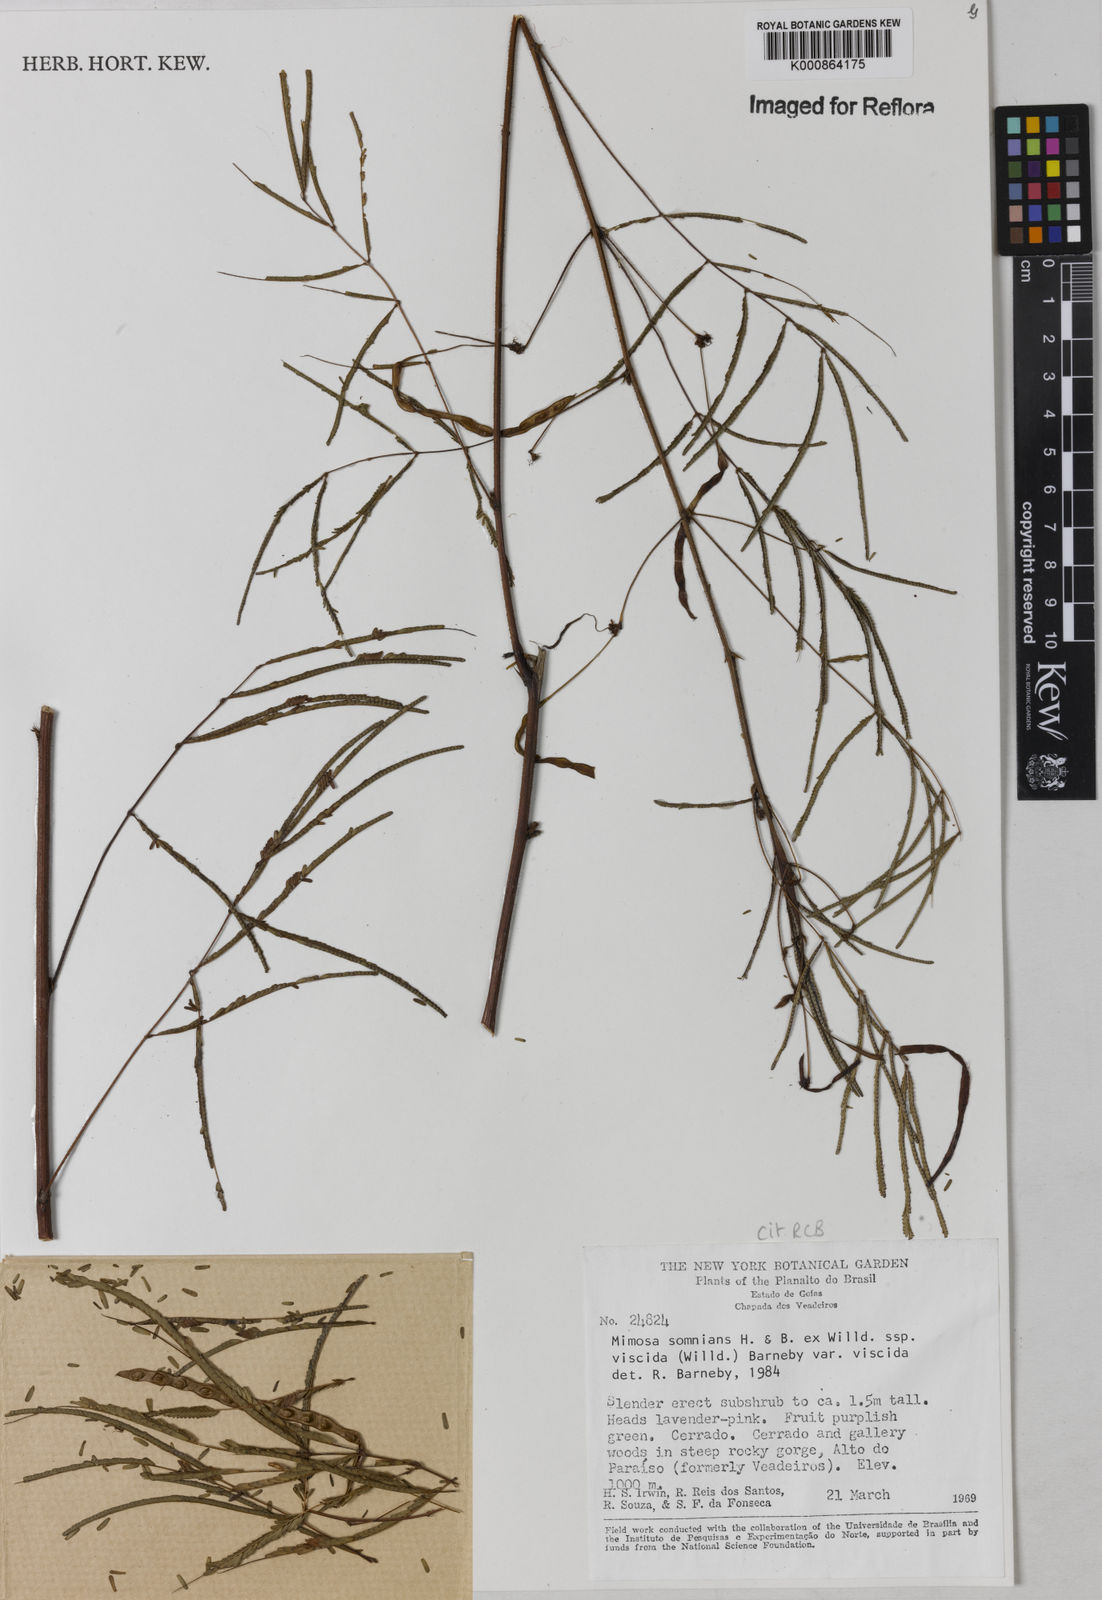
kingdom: Plantae
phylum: Tracheophyta
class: Magnoliopsida
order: Fabales
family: Fabaceae
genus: Mimosa
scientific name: Mimosa somnians
